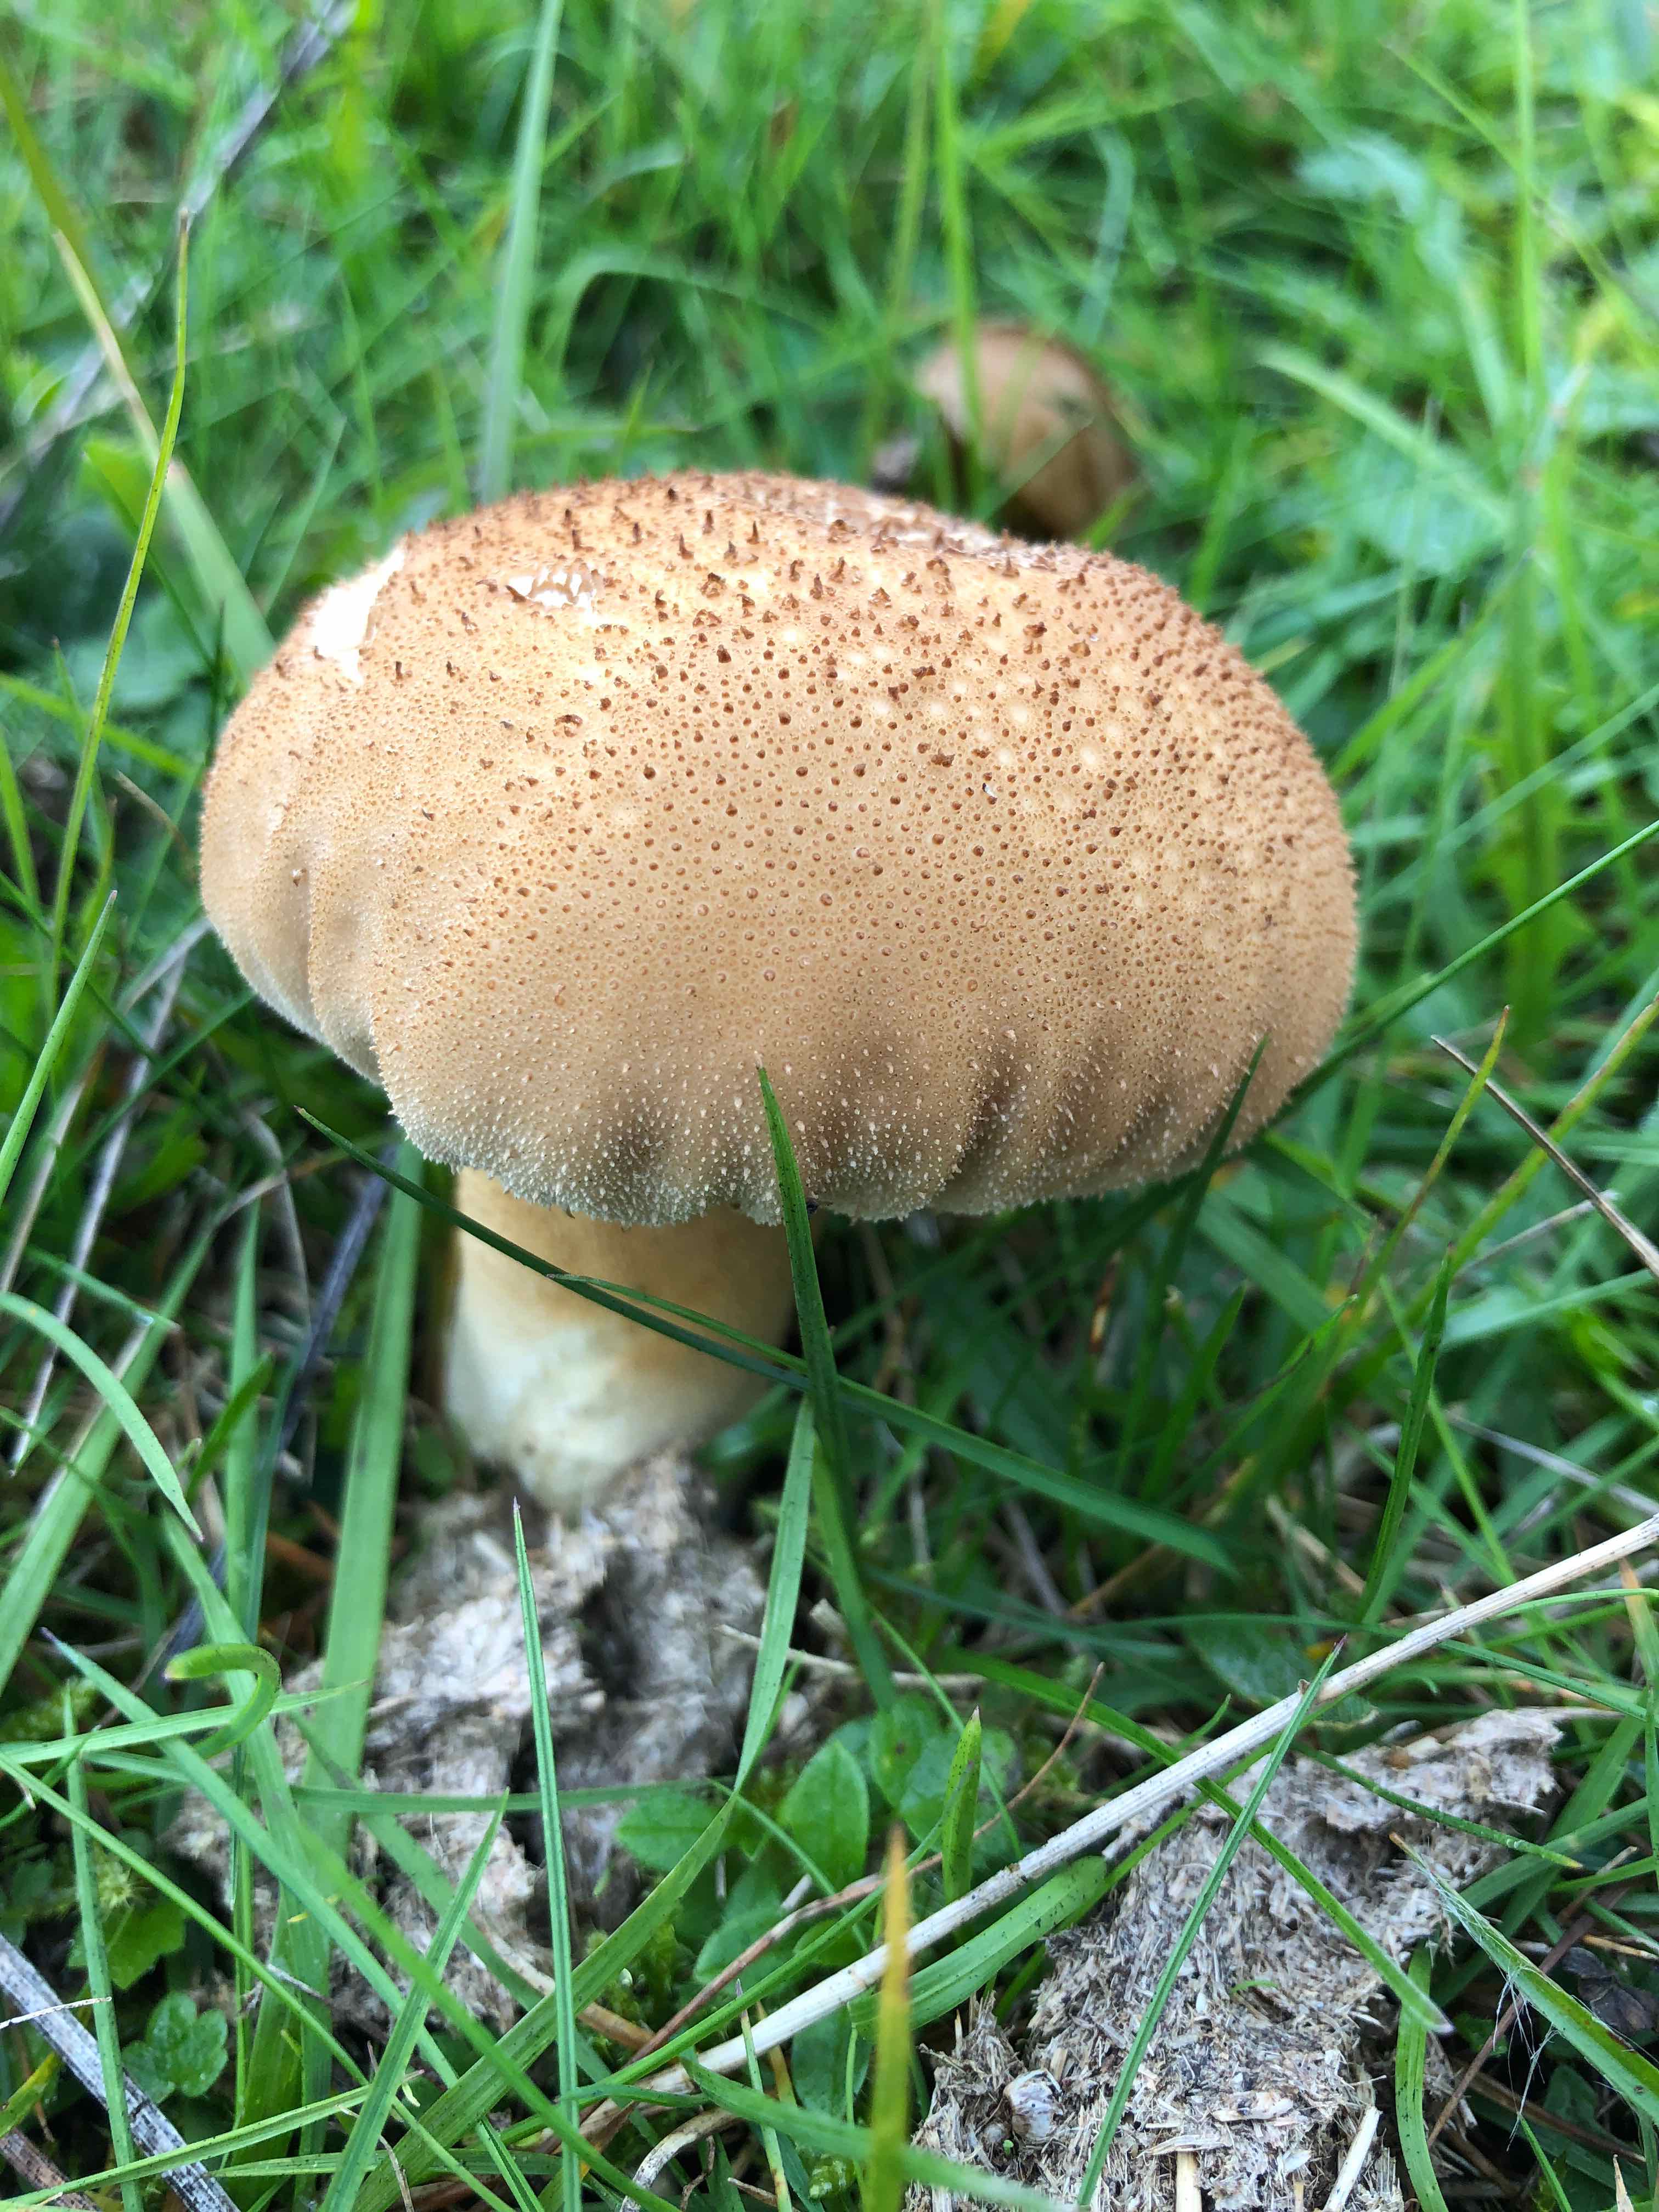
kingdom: Fungi
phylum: Basidiomycota
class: Agaricomycetes
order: Agaricales
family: Agaricaceae
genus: Lycoperdon
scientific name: Lycoperdon
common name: støvbold
